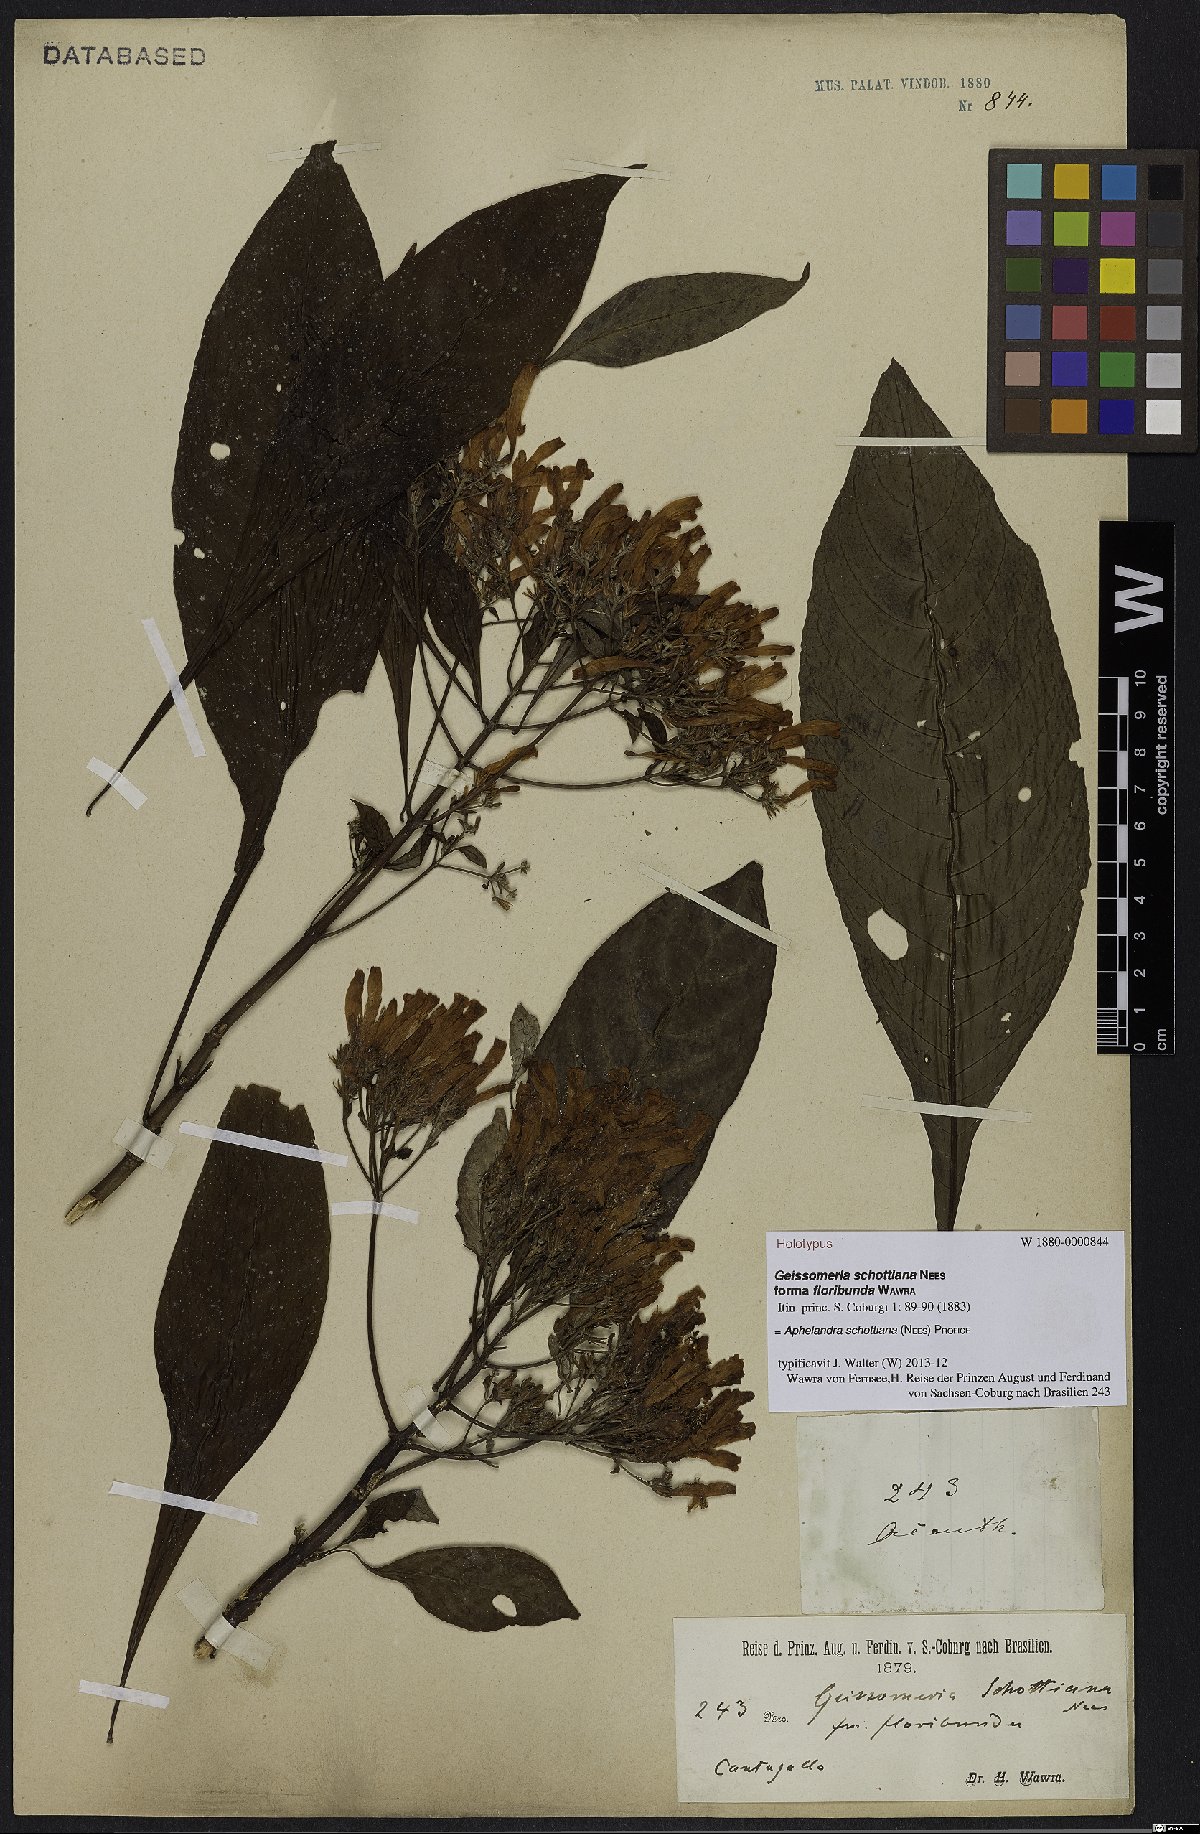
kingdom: Plantae
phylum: Tracheophyta
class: Magnoliopsida
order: Lamiales
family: Acanthaceae
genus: Aphelandra
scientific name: Aphelandra schottiana
